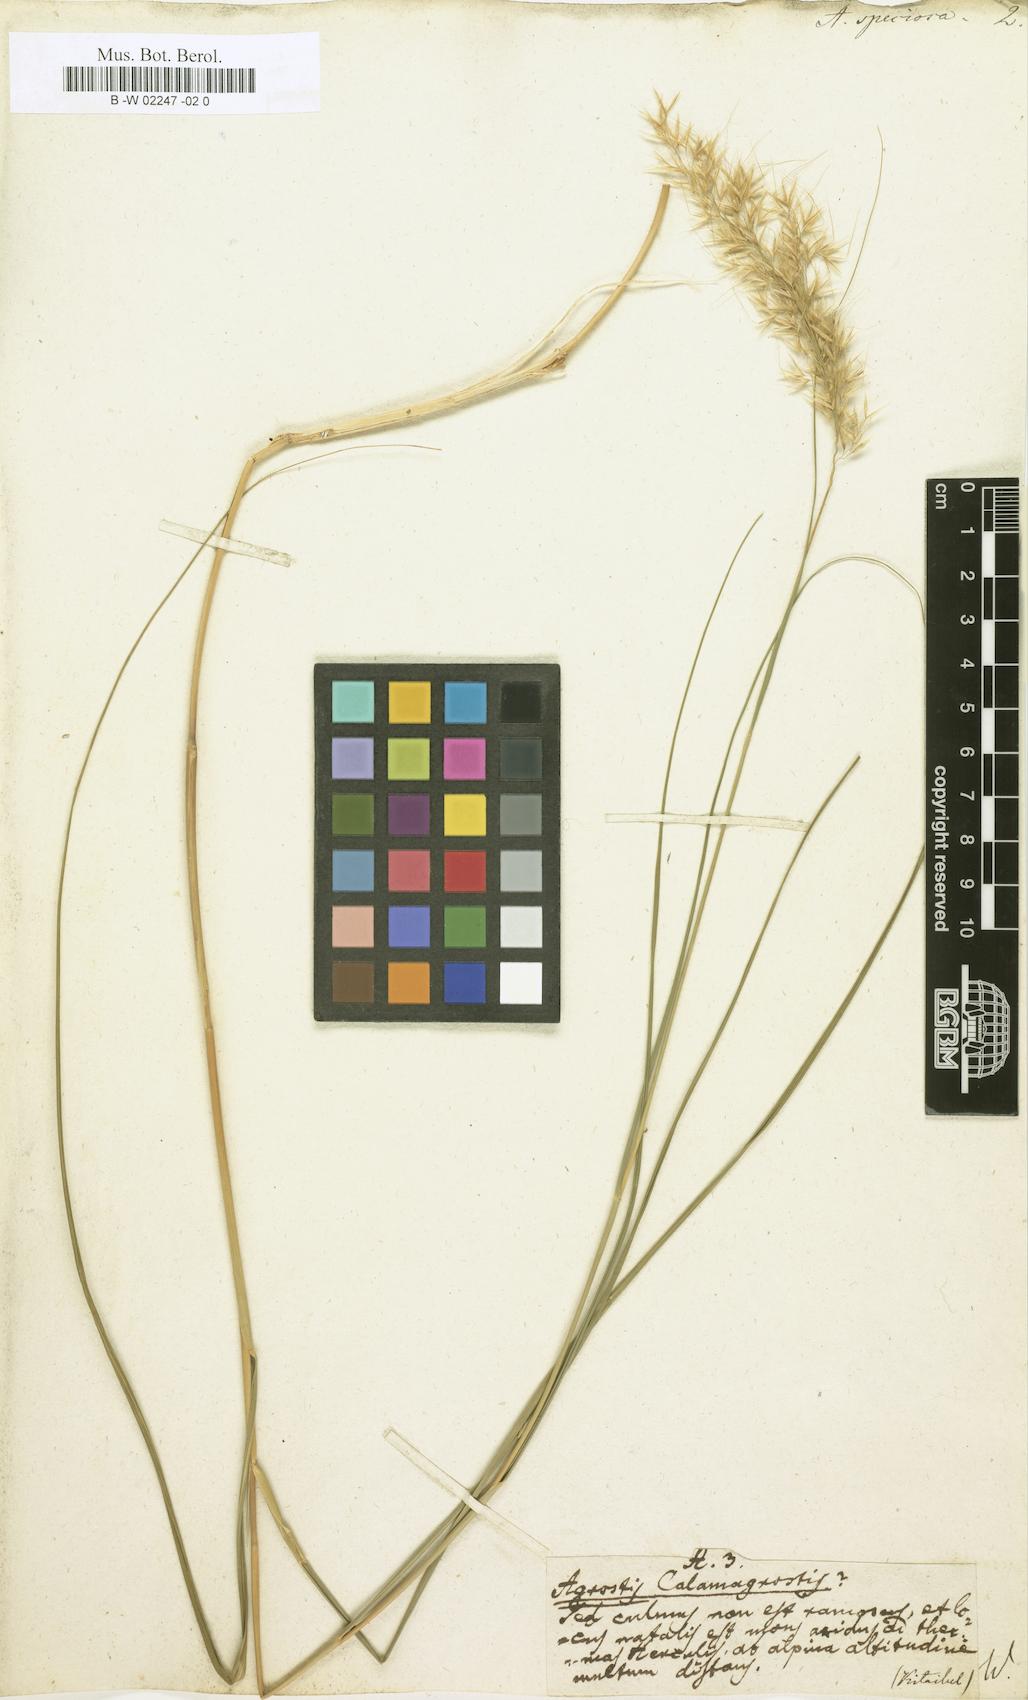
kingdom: Plantae
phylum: Tracheophyta
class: Liliopsida
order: Poales
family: Poaceae
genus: Achnatherum
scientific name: Achnatherum calamagrostis
